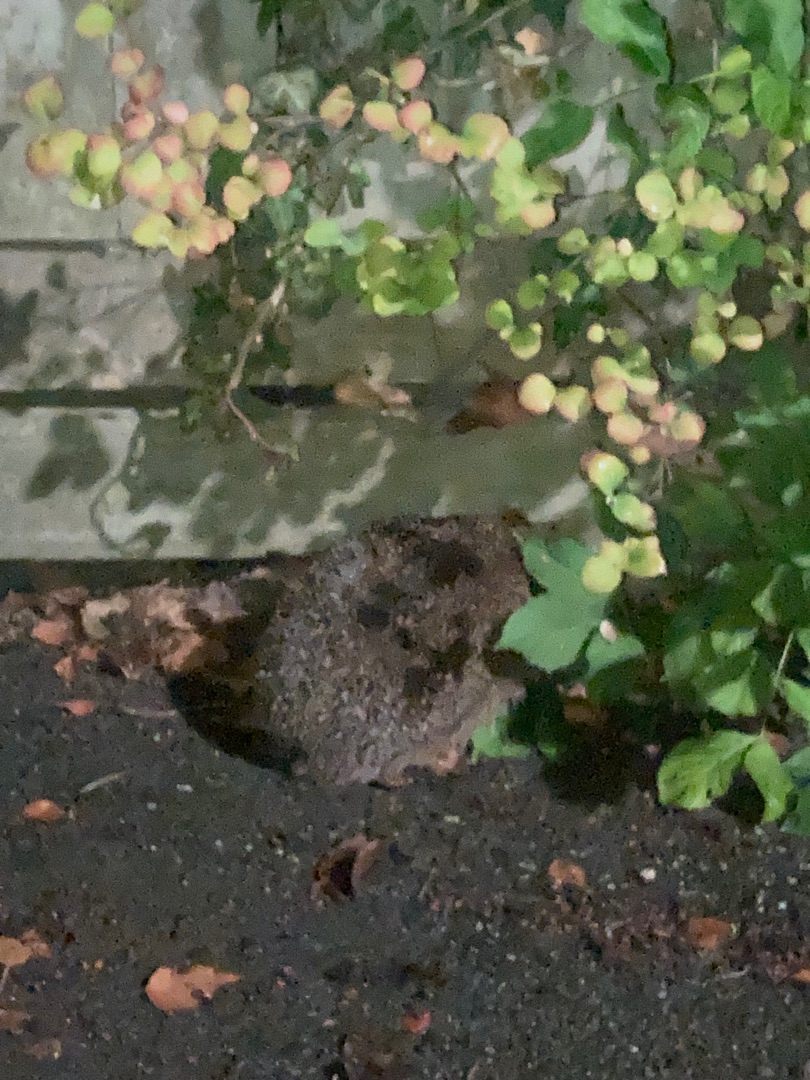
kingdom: Animalia
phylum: Chordata
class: Mammalia
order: Erinaceomorpha
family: Erinaceidae
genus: Erinaceus
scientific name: Erinaceus europaeus
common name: Pindsvin
